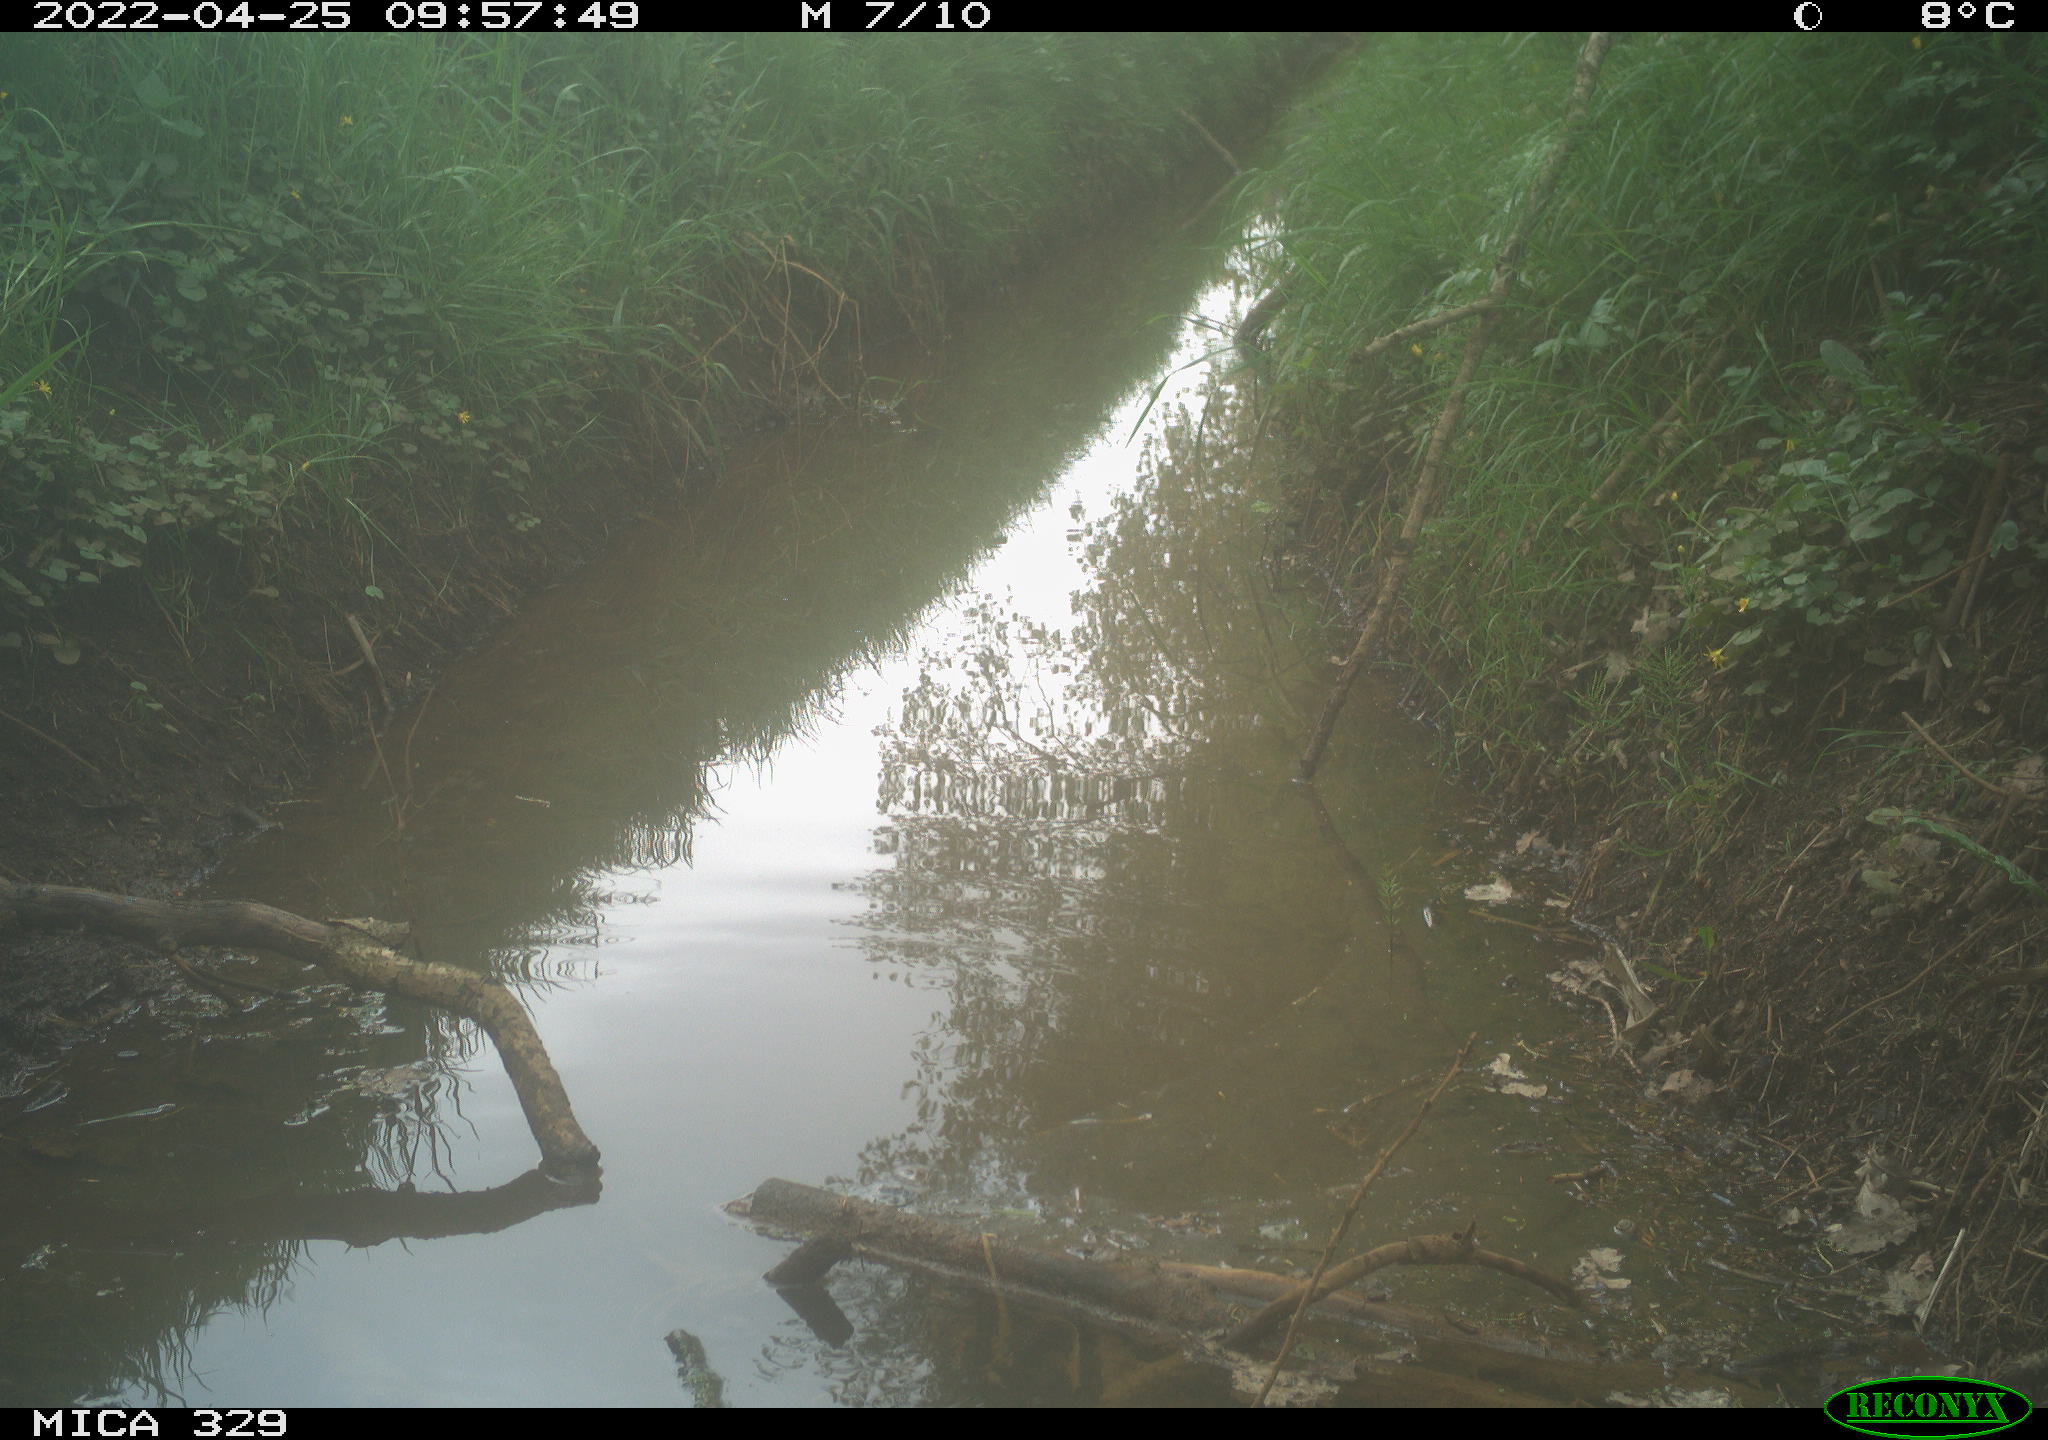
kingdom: Animalia
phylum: Chordata
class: Aves
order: Passeriformes
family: Turdidae
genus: Turdus
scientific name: Turdus merula
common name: Common blackbird
